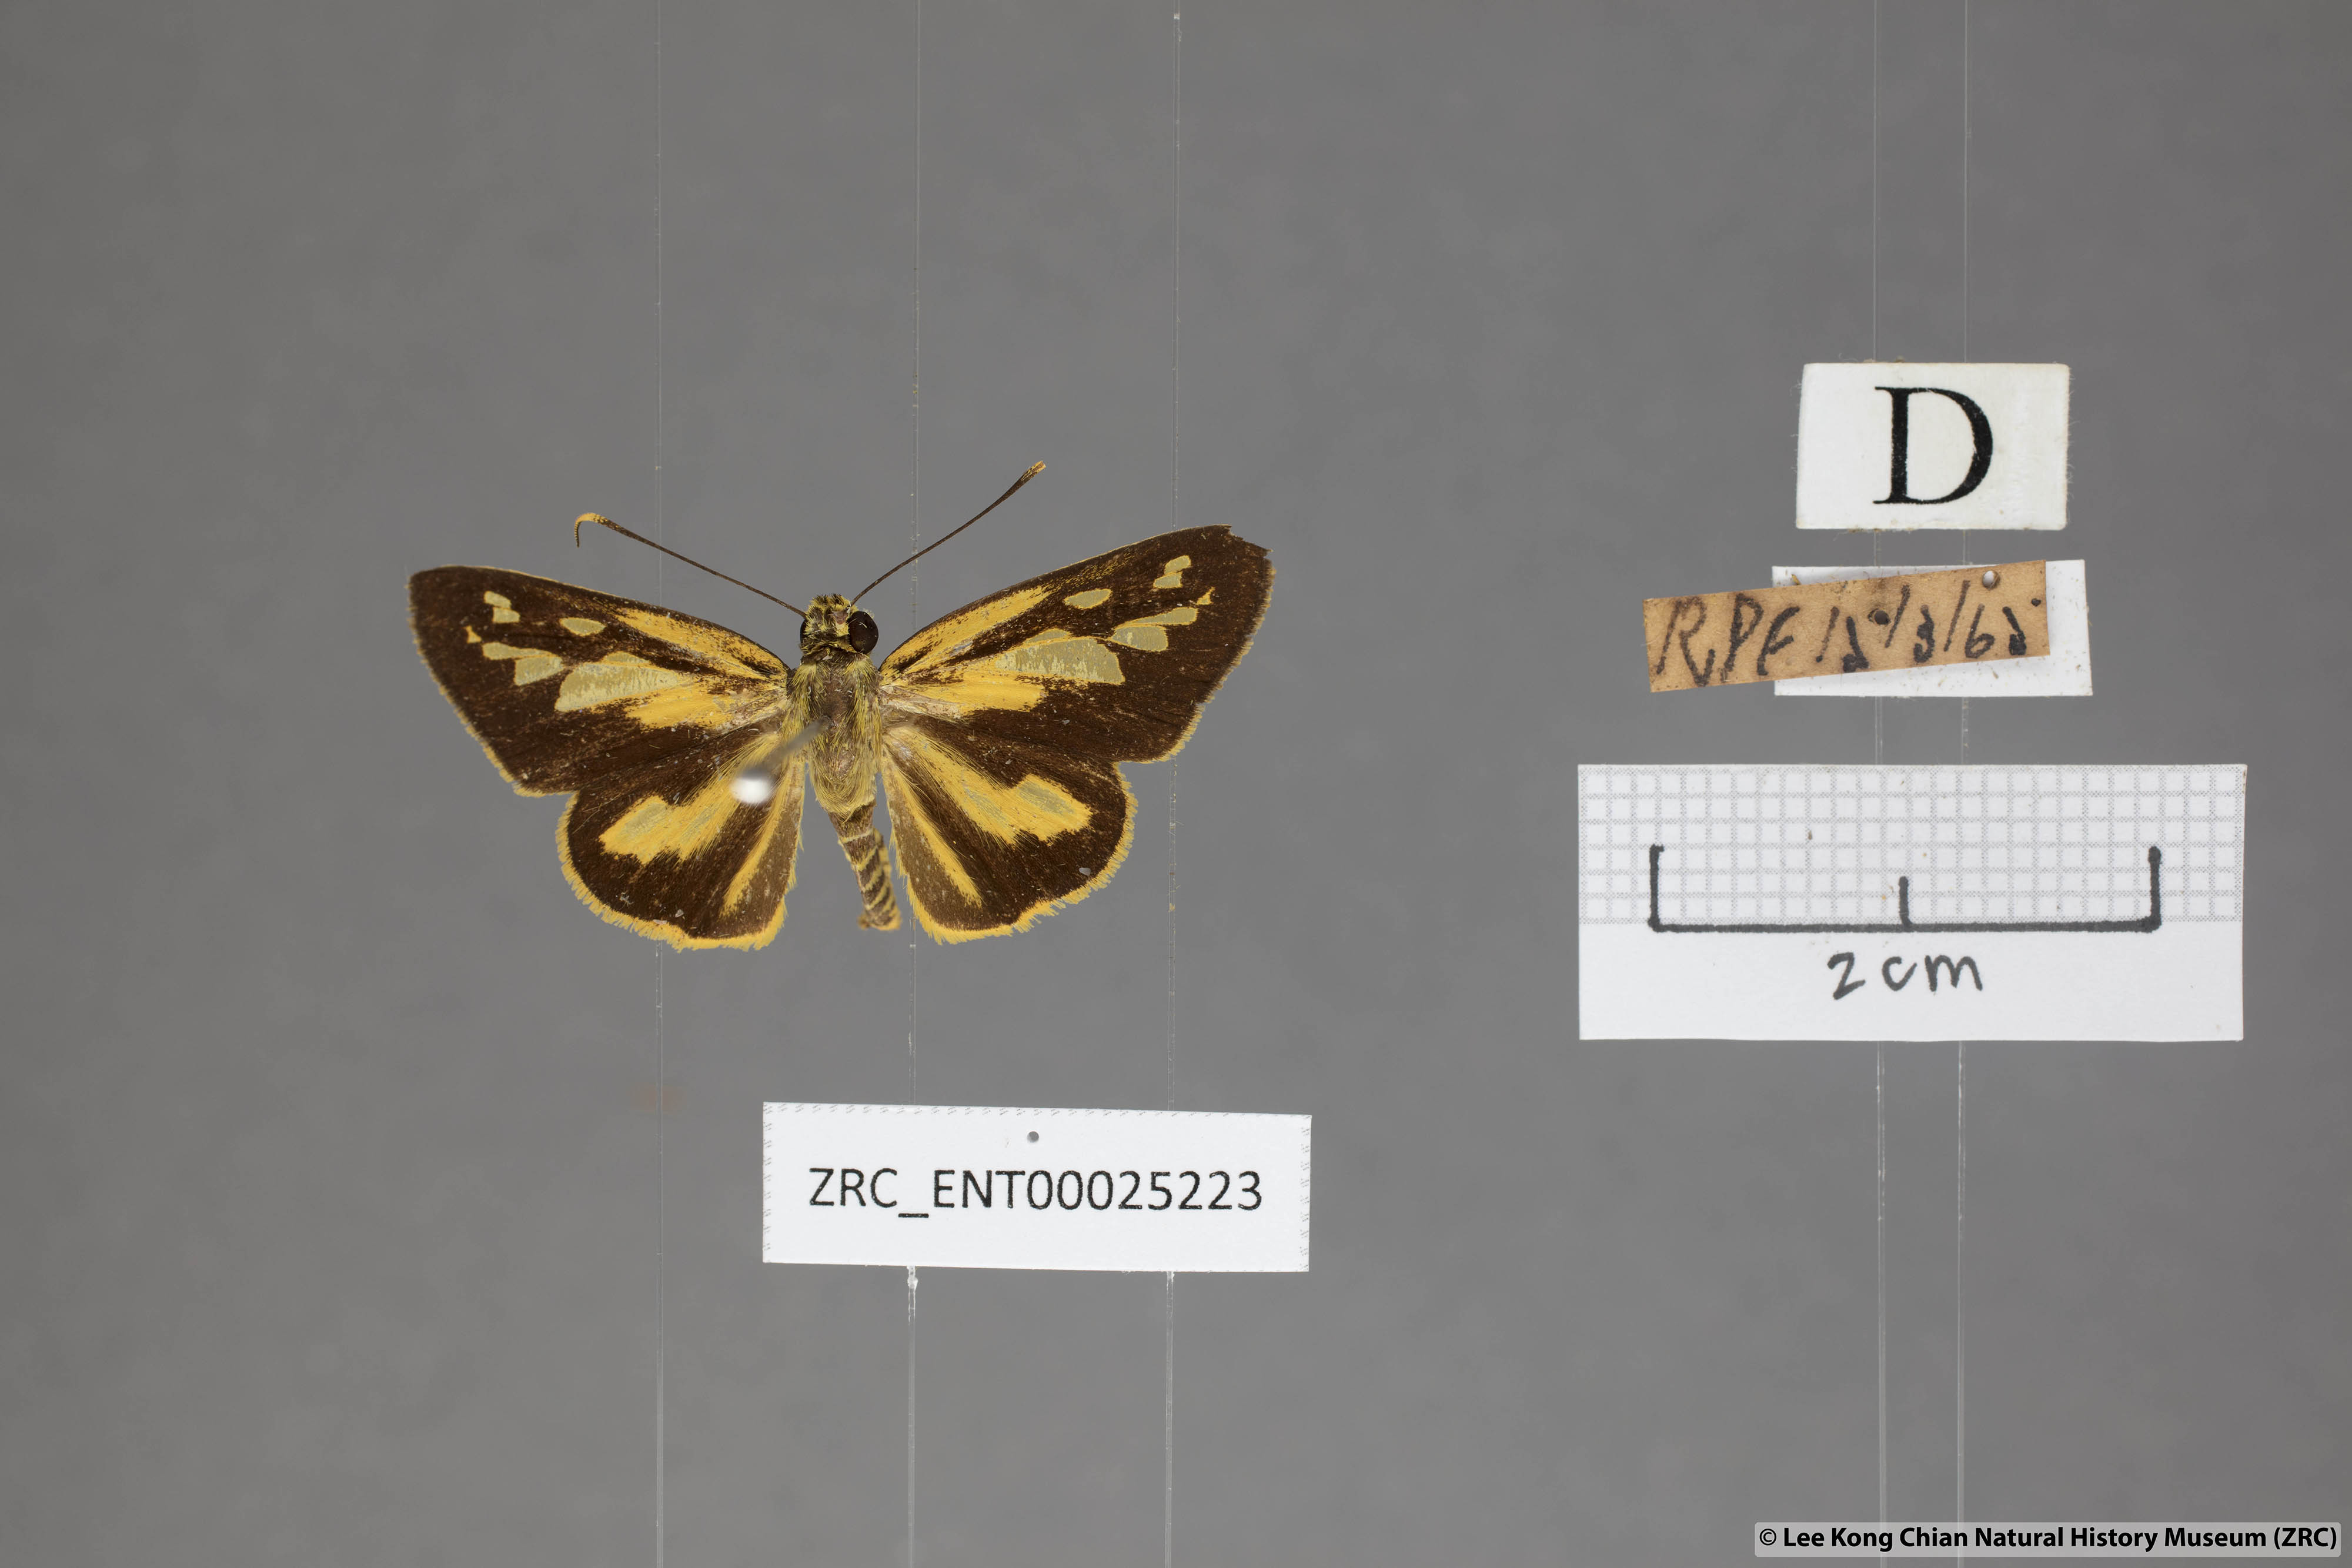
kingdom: Animalia
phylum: Arthropoda
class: Insecta
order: Lepidoptera
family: Hesperiidae
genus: Pyroneura
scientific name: Pyroneura flavia
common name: Lesser lancer
